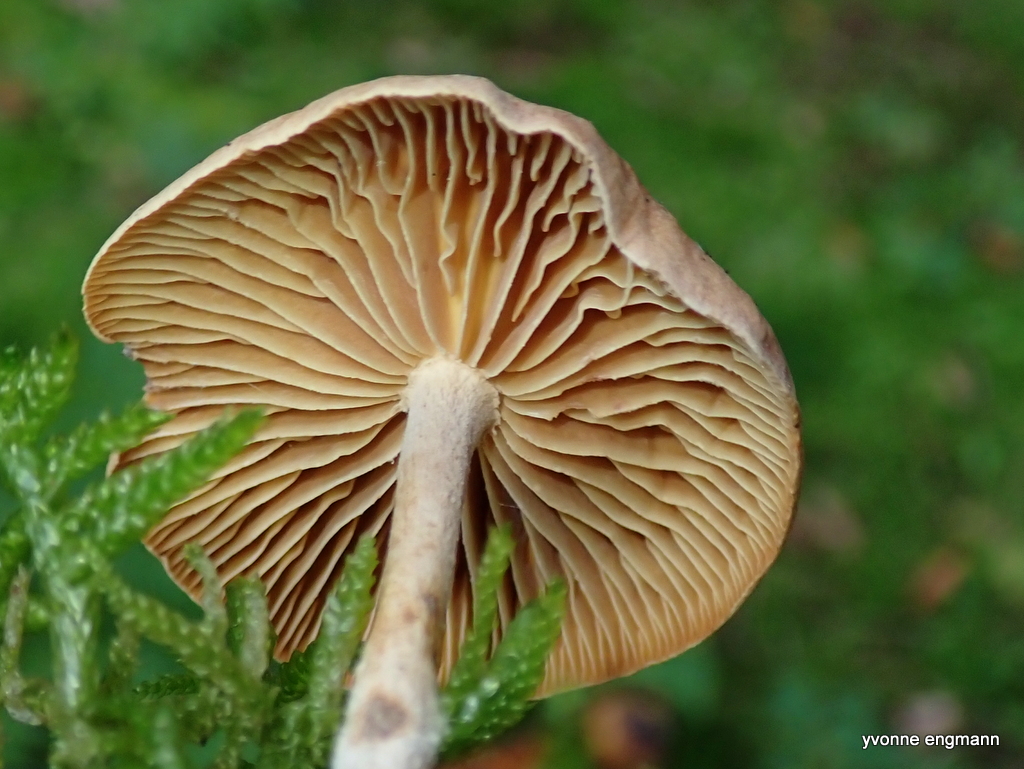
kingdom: Fungi
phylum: Basidiomycota
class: Agaricomycetes
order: Agaricales
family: Omphalotaceae
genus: Collybiopsis
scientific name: Collybiopsis peronata
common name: bestøvlet fladhat
